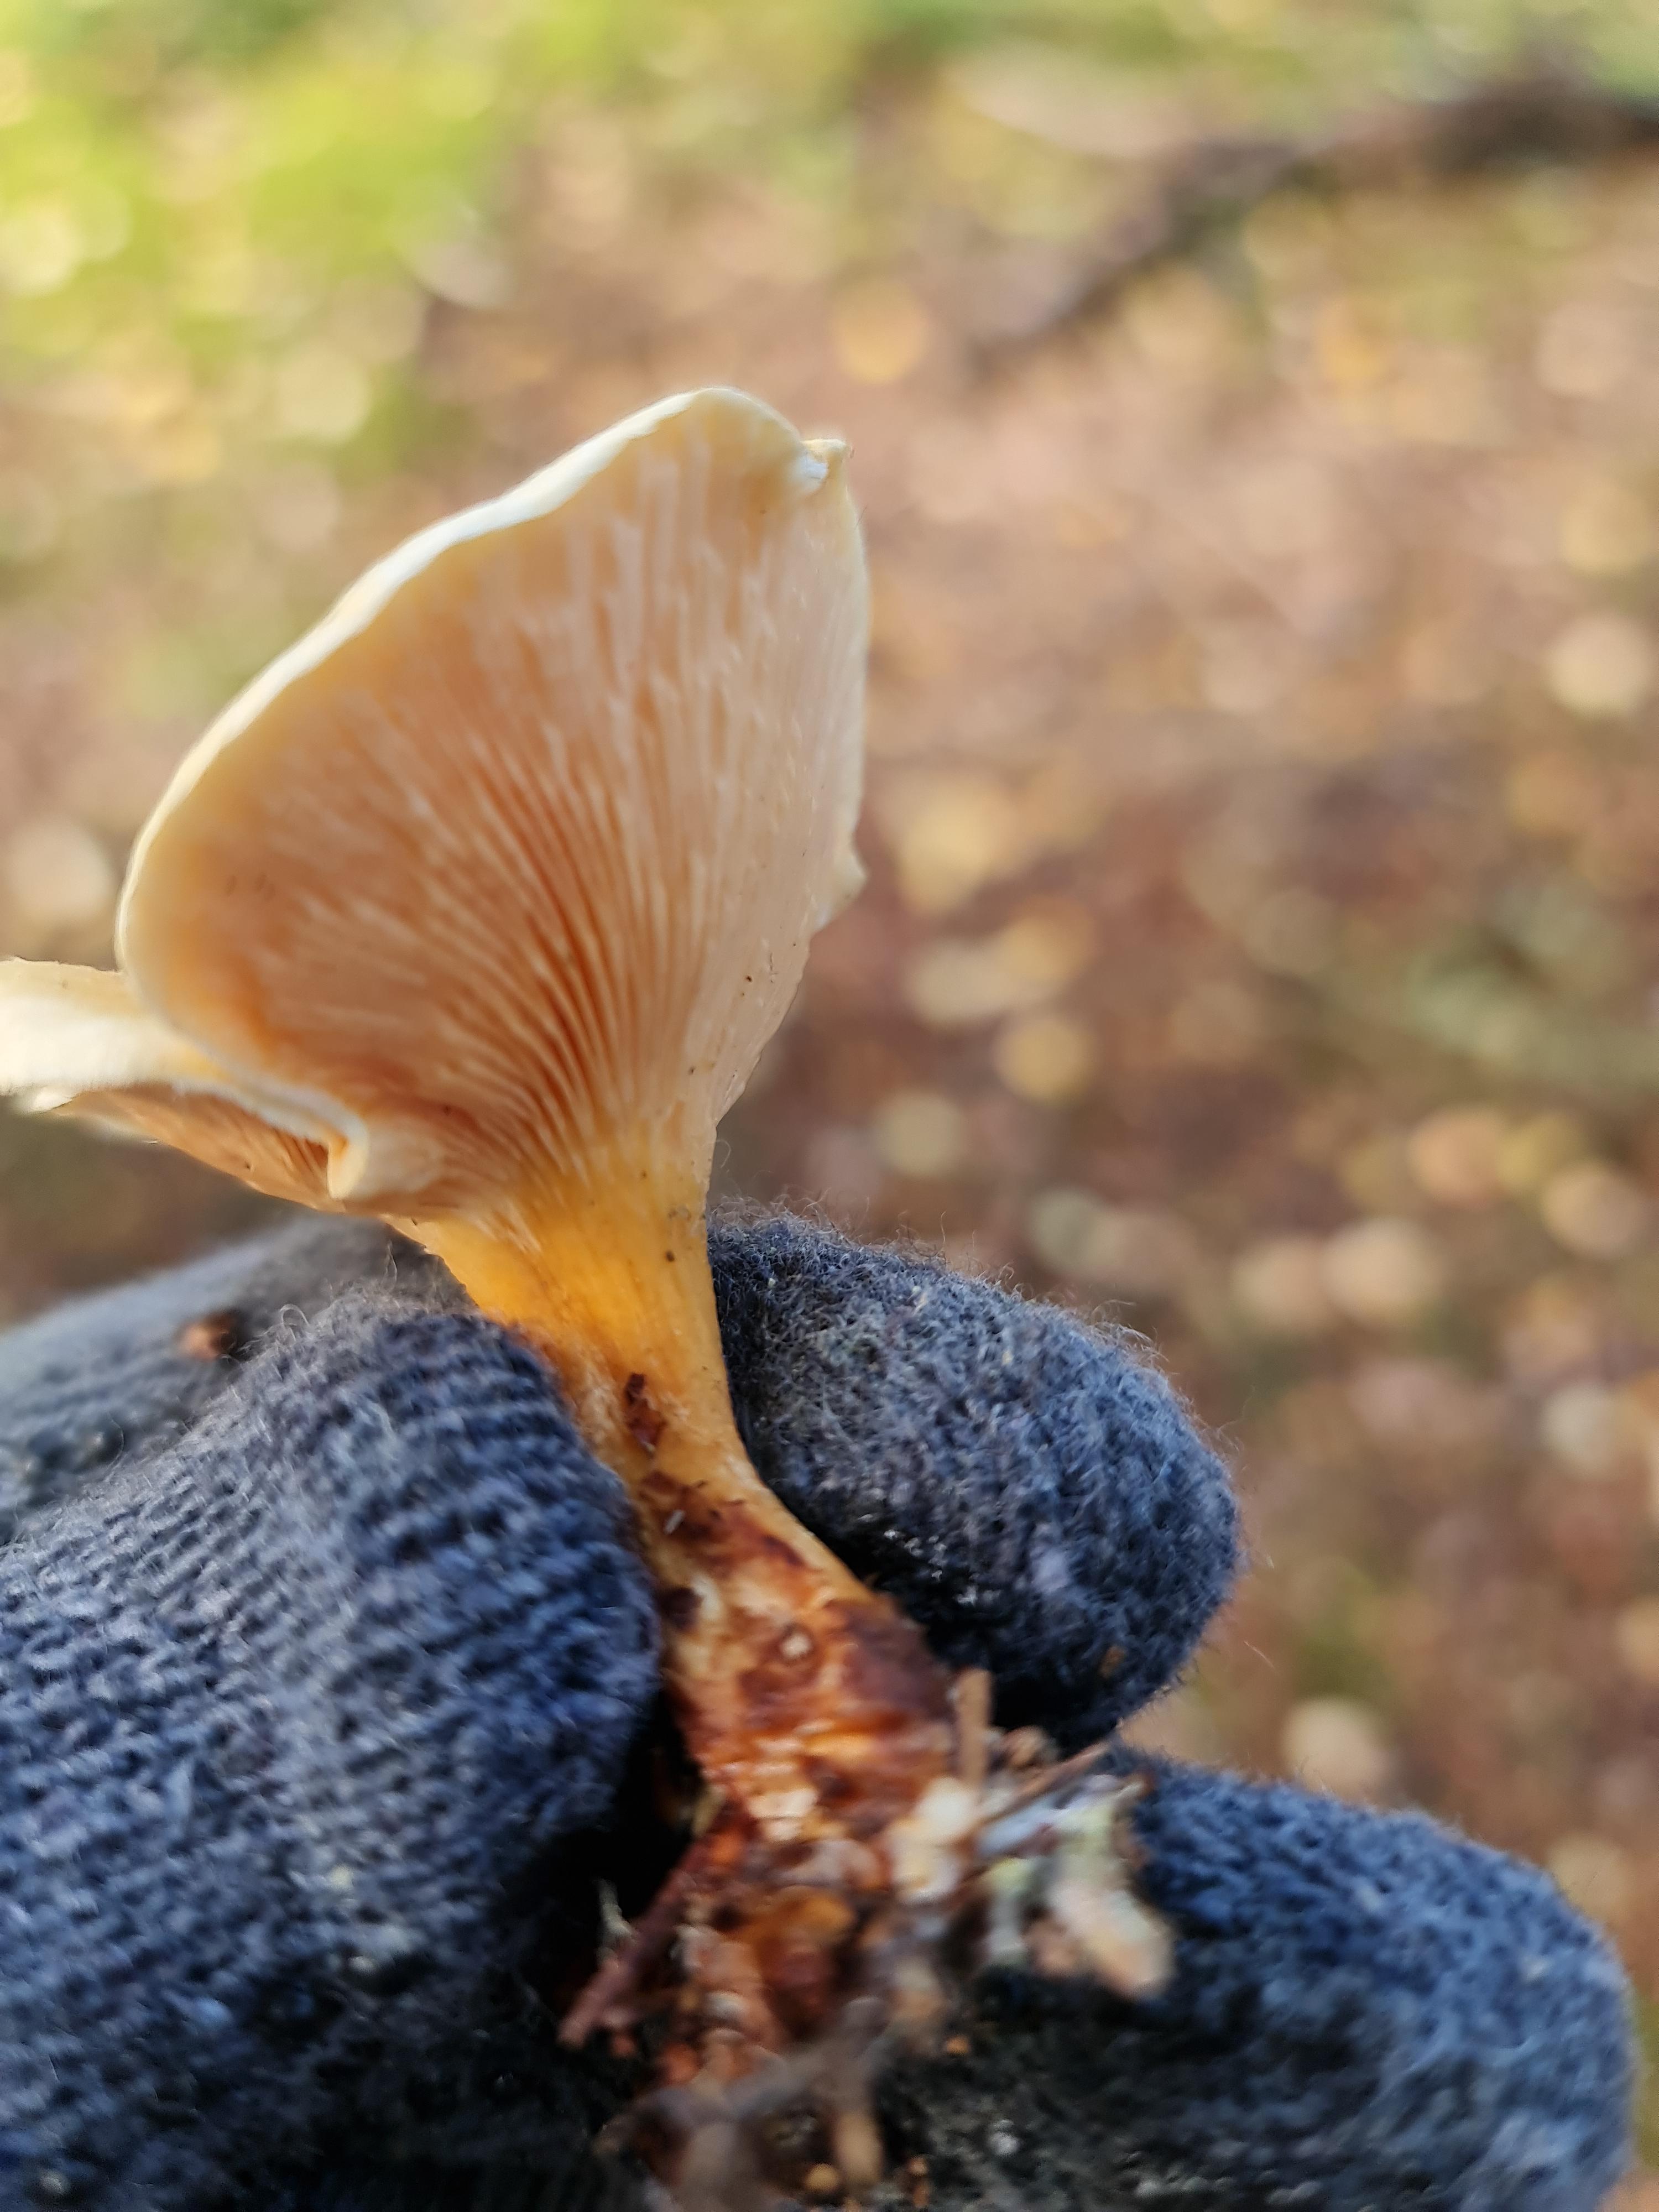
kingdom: Fungi
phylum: Basidiomycota
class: Agaricomycetes
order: Boletales
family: Hygrophoropsidaceae
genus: Hygrophoropsis
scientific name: Hygrophoropsis aurantiaca
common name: almindelig orangekantarel
